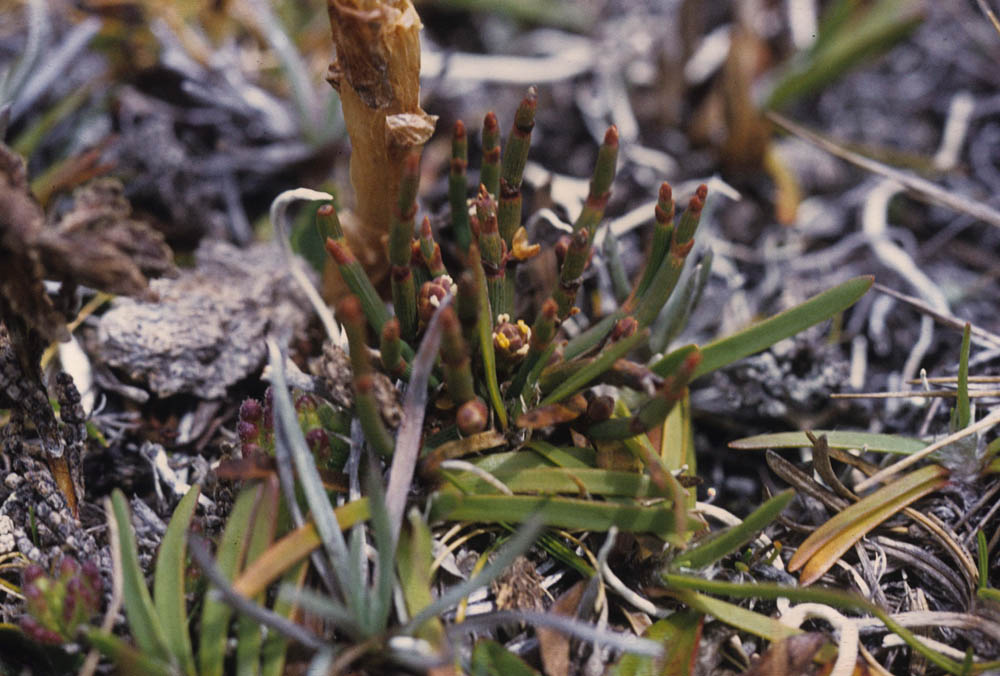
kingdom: Plantae
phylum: Tracheophyta
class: Gnetopsida
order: Ephedrales
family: Ephedraceae
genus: Ephedra
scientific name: Ephedra rupestris
